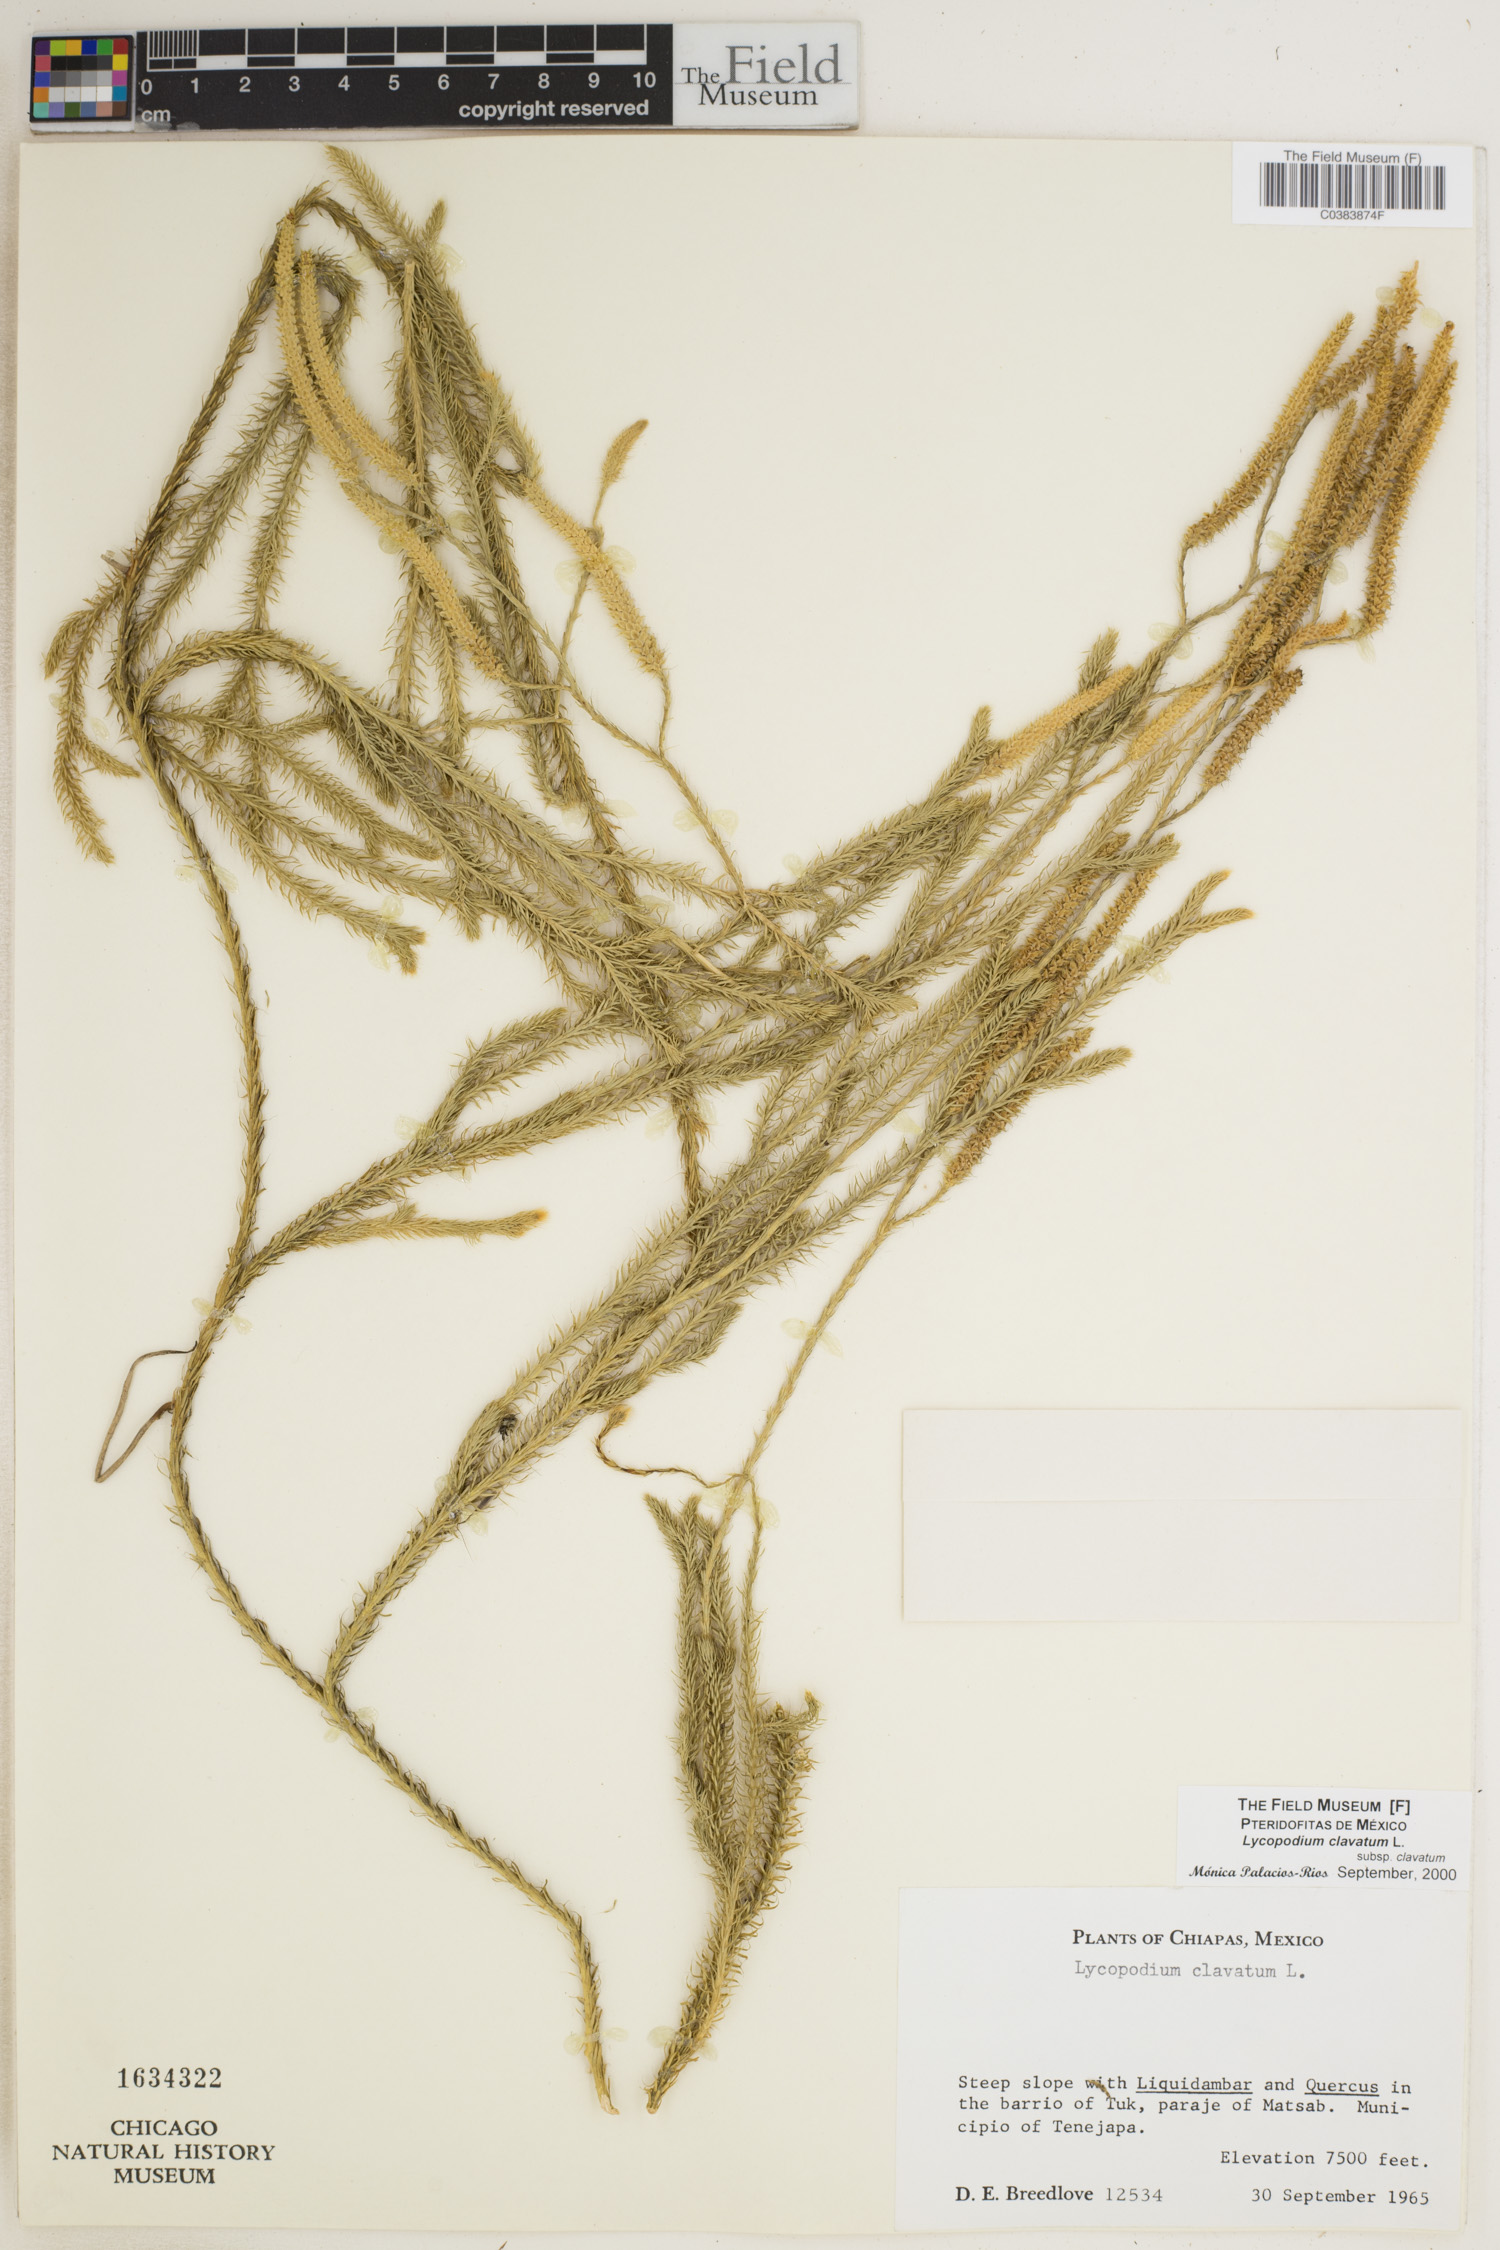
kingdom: Plantae
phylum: Tracheophyta
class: Lycopodiopsida
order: Lycopodiales
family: Lycopodiaceae
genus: Lycopodium
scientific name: Lycopodium clavatum
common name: Stag's-horn clubmoss
